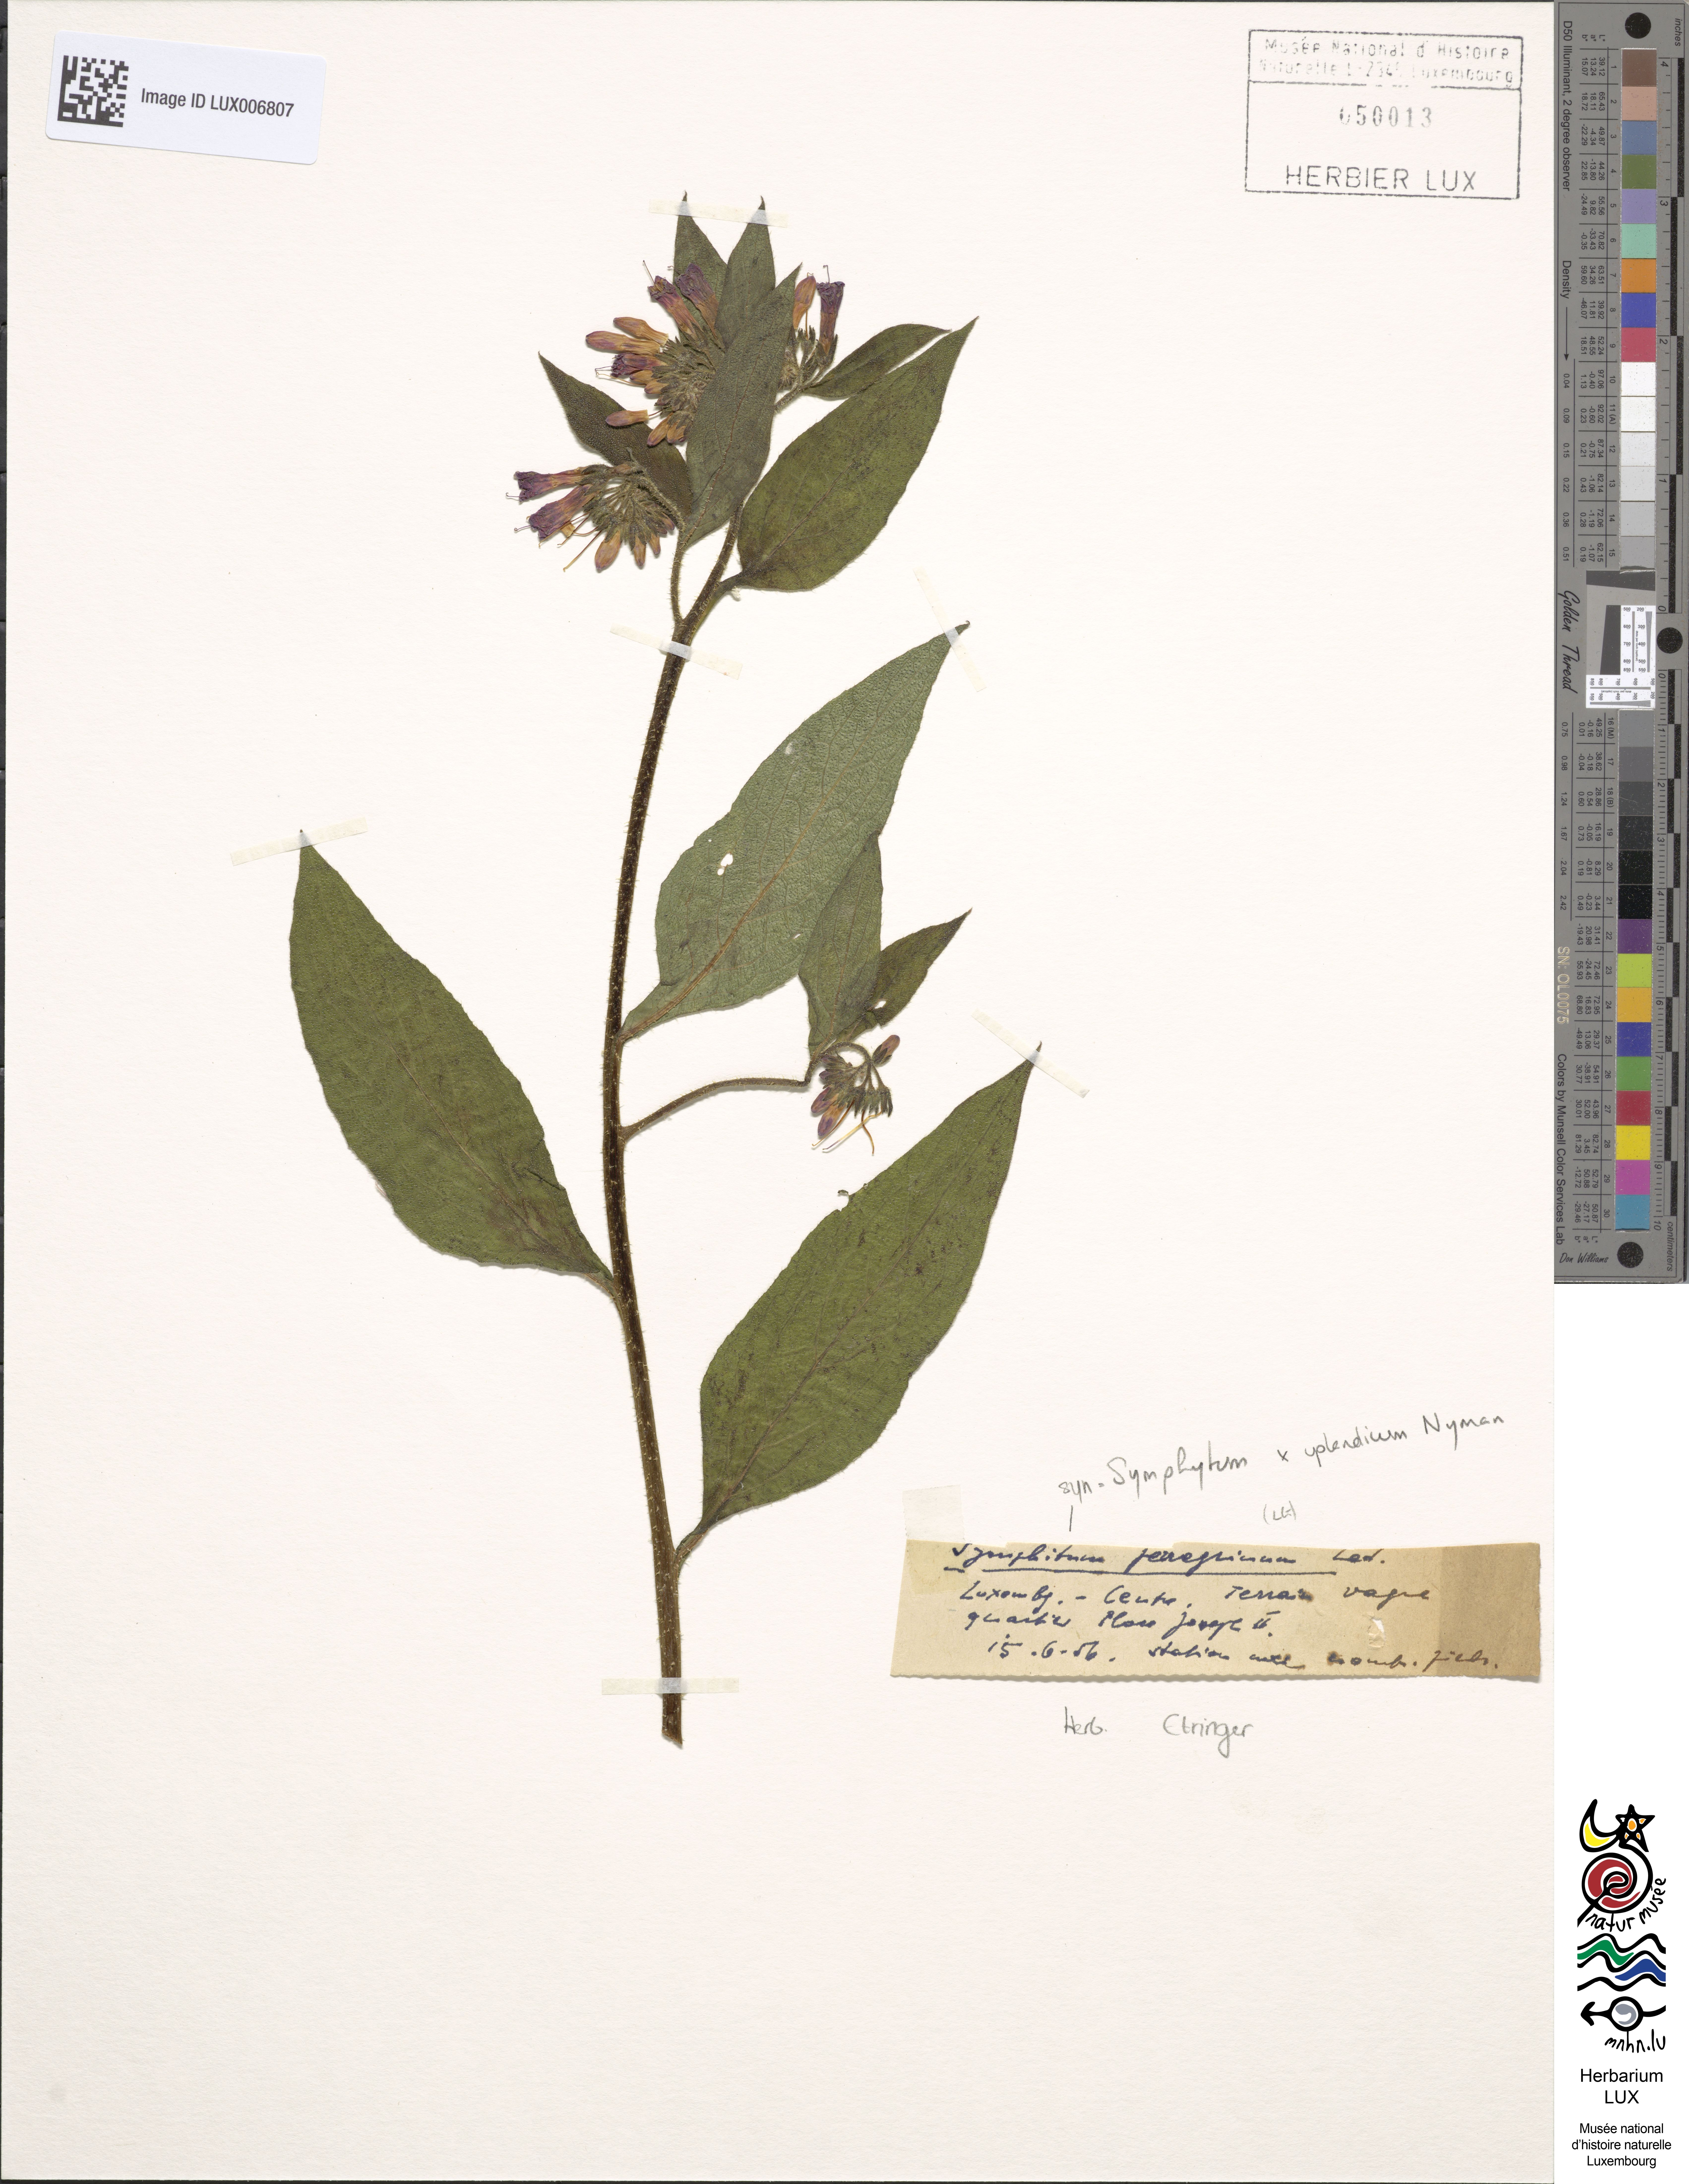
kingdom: Plantae
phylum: Tracheophyta
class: Magnoliopsida
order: Boraginales
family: Boraginaceae
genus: Symphytum
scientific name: Symphytum officinale
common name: Common comfrey
